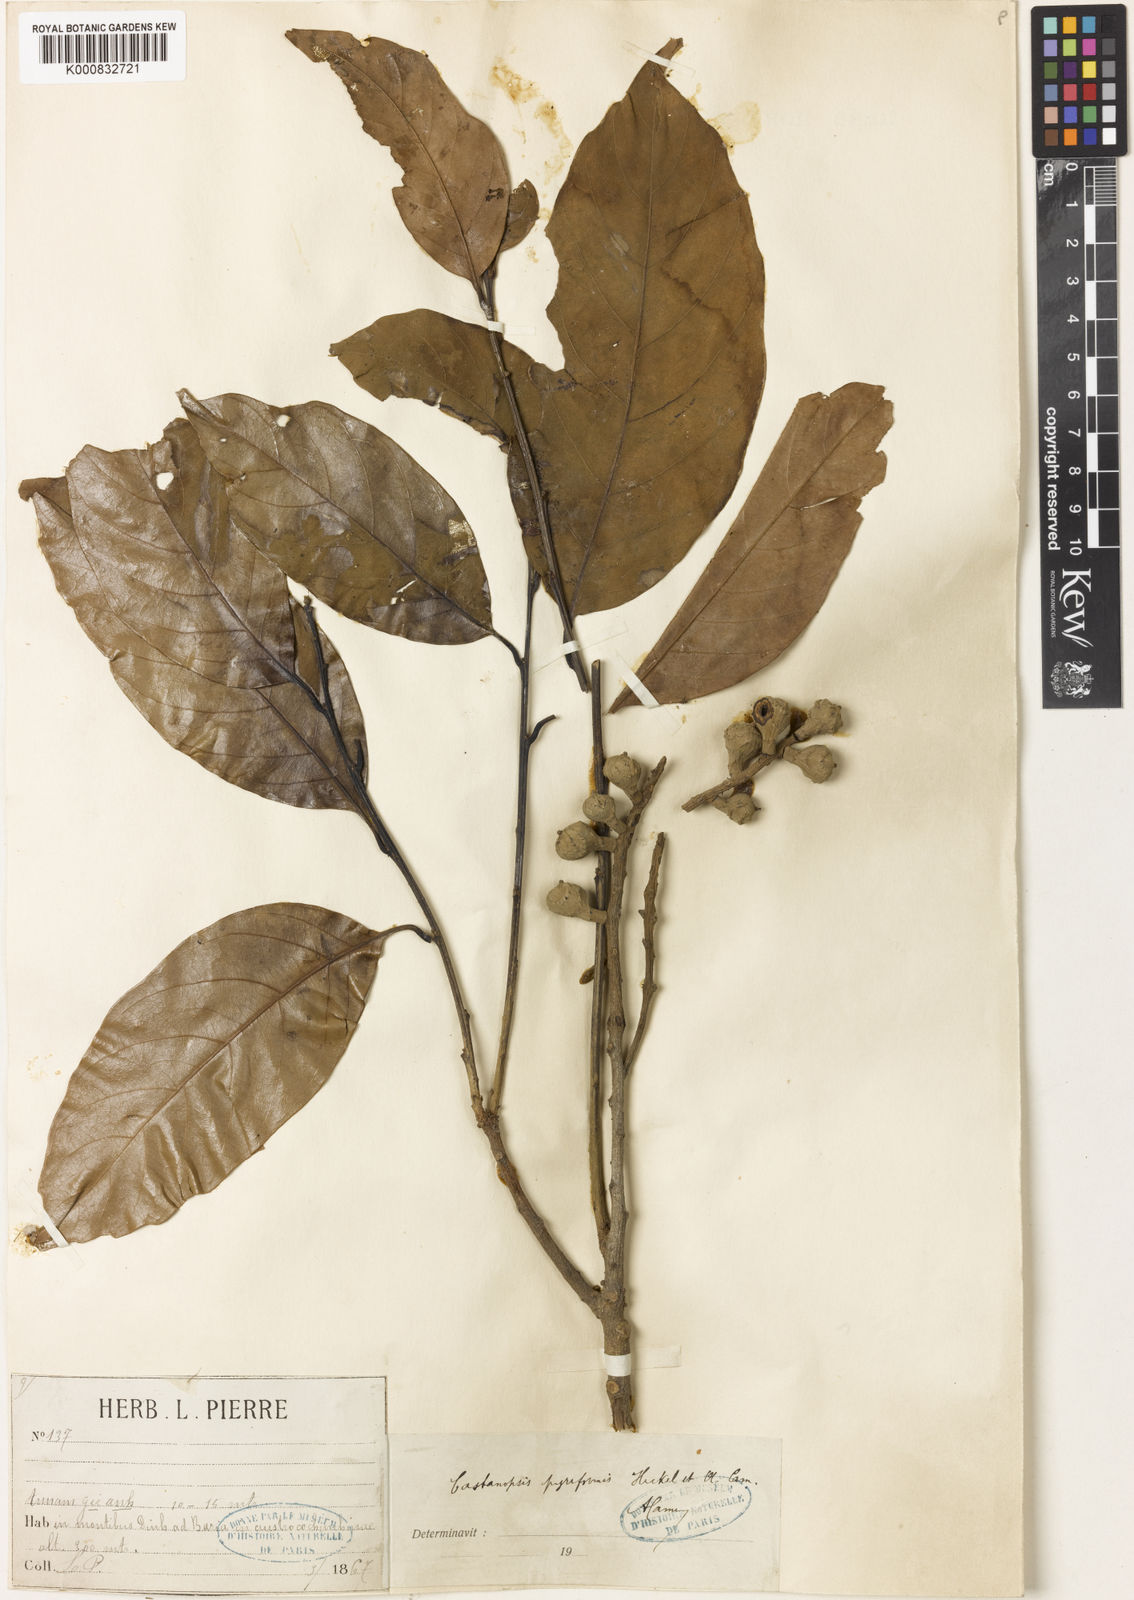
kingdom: Plantae
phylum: Tracheophyta
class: Magnoliopsida
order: Fagales
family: Fagaceae
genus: Castanopsis
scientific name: Castanopsis piriformis
